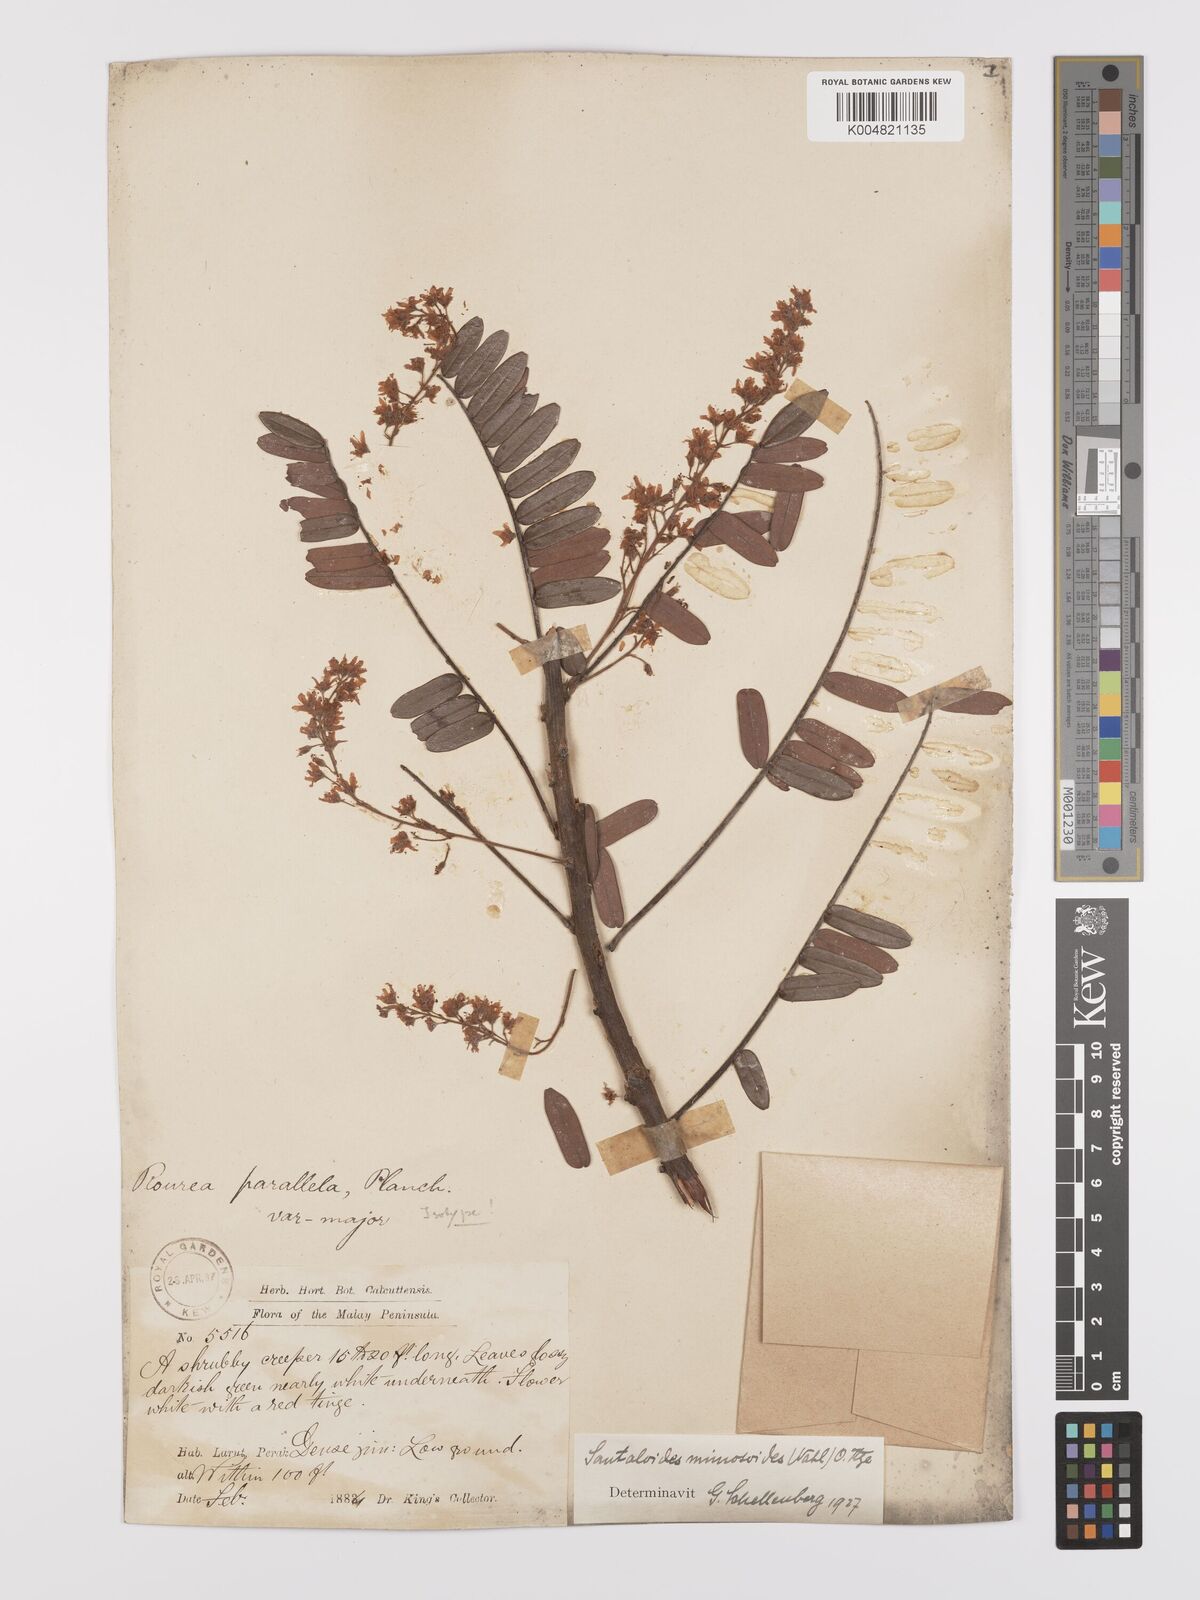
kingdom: Plantae
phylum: Tracheophyta
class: Magnoliopsida
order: Oxalidales
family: Connaraceae
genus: Rourea
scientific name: Rourea mimosoides
